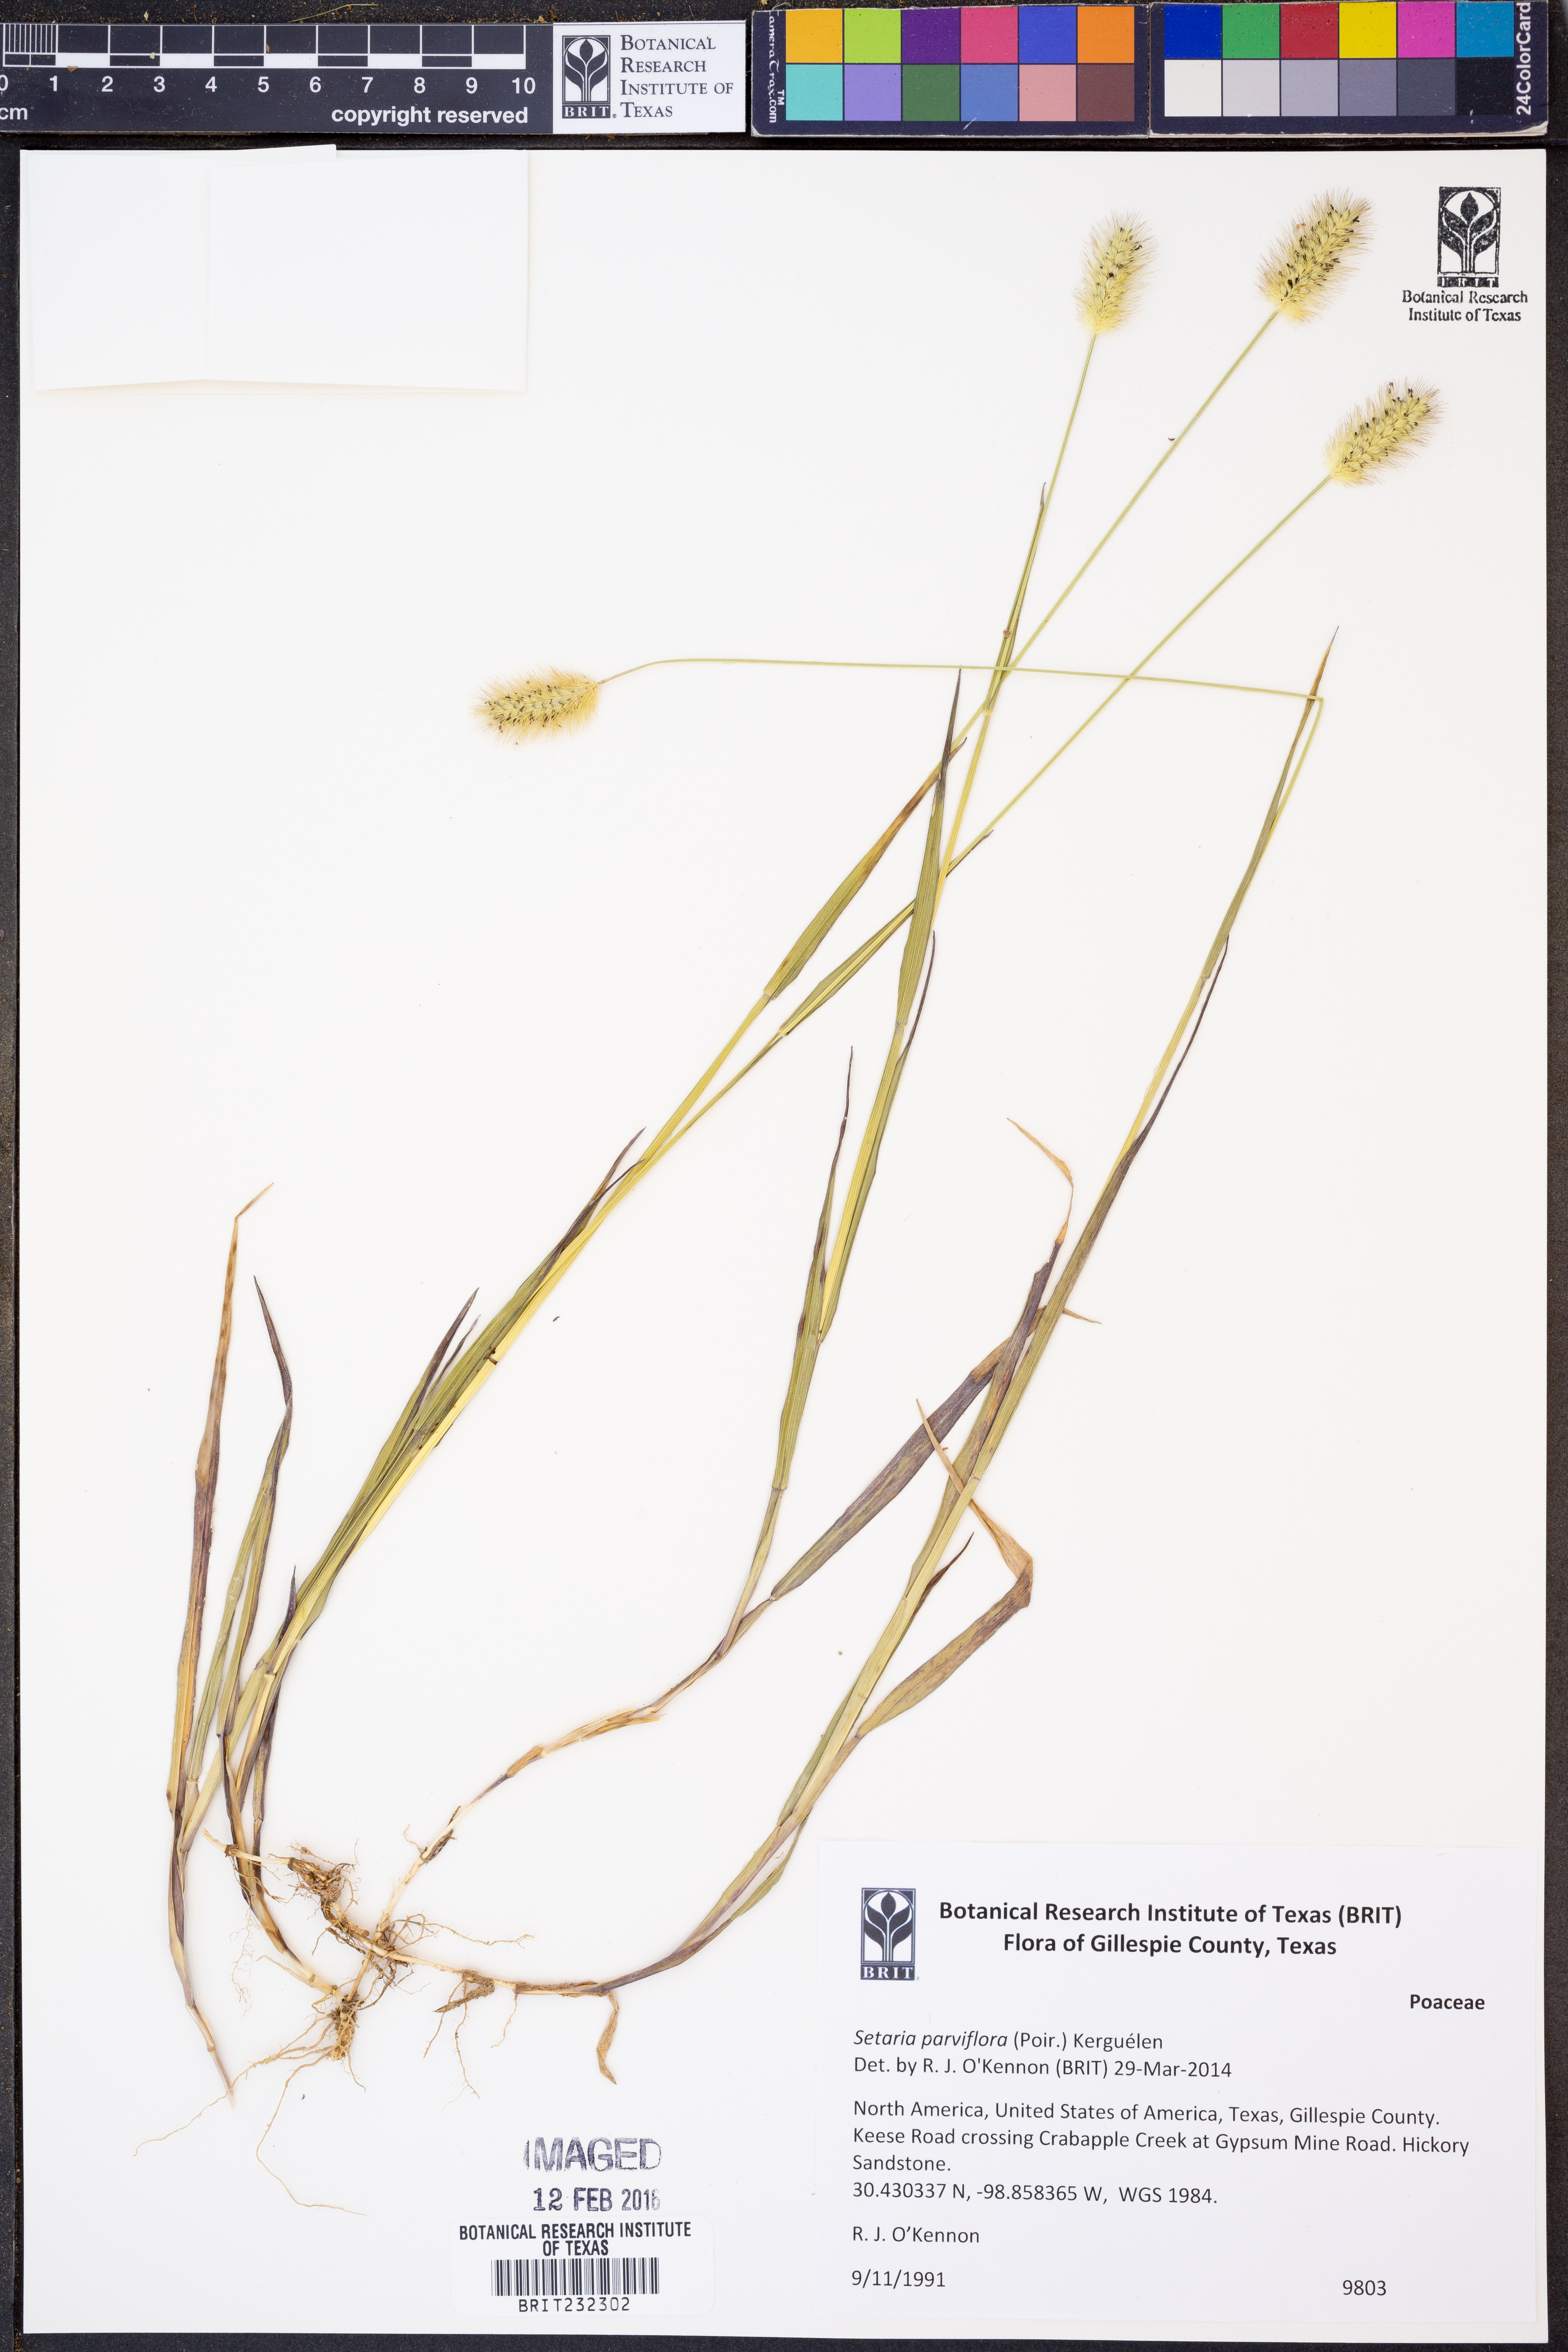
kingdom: Plantae
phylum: Tracheophyta
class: Liliopsida
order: Poales
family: Poaceae
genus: Setaria
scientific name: Setaria parviflora
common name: Knotroot bristle-grass
